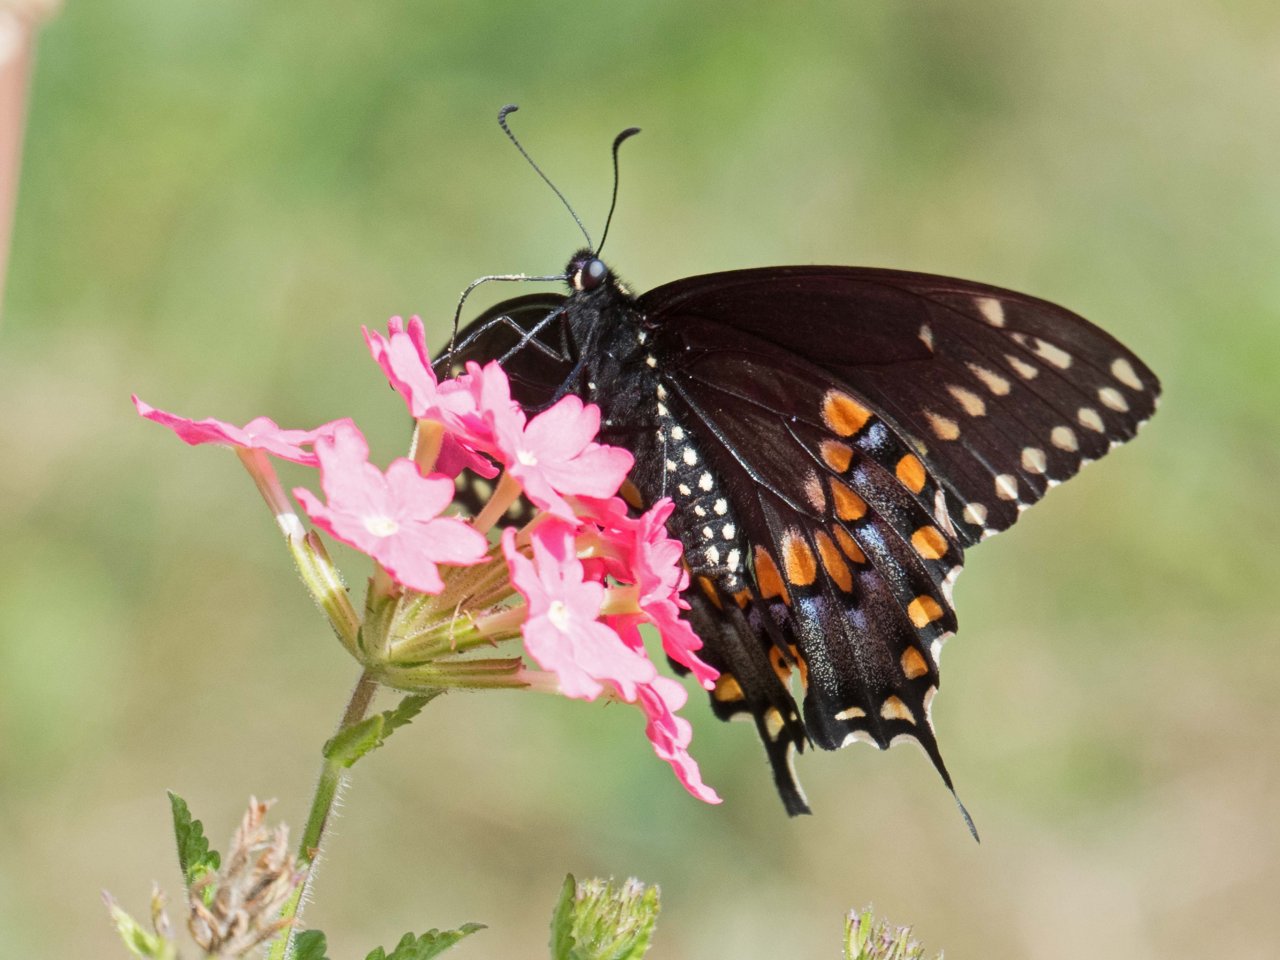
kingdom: Animalia
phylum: Arthropoda
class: Insecta
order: Lepidoptera
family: Papilionidae
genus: Papilio
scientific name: Papilio polyxenes
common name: Black Swallowtail
